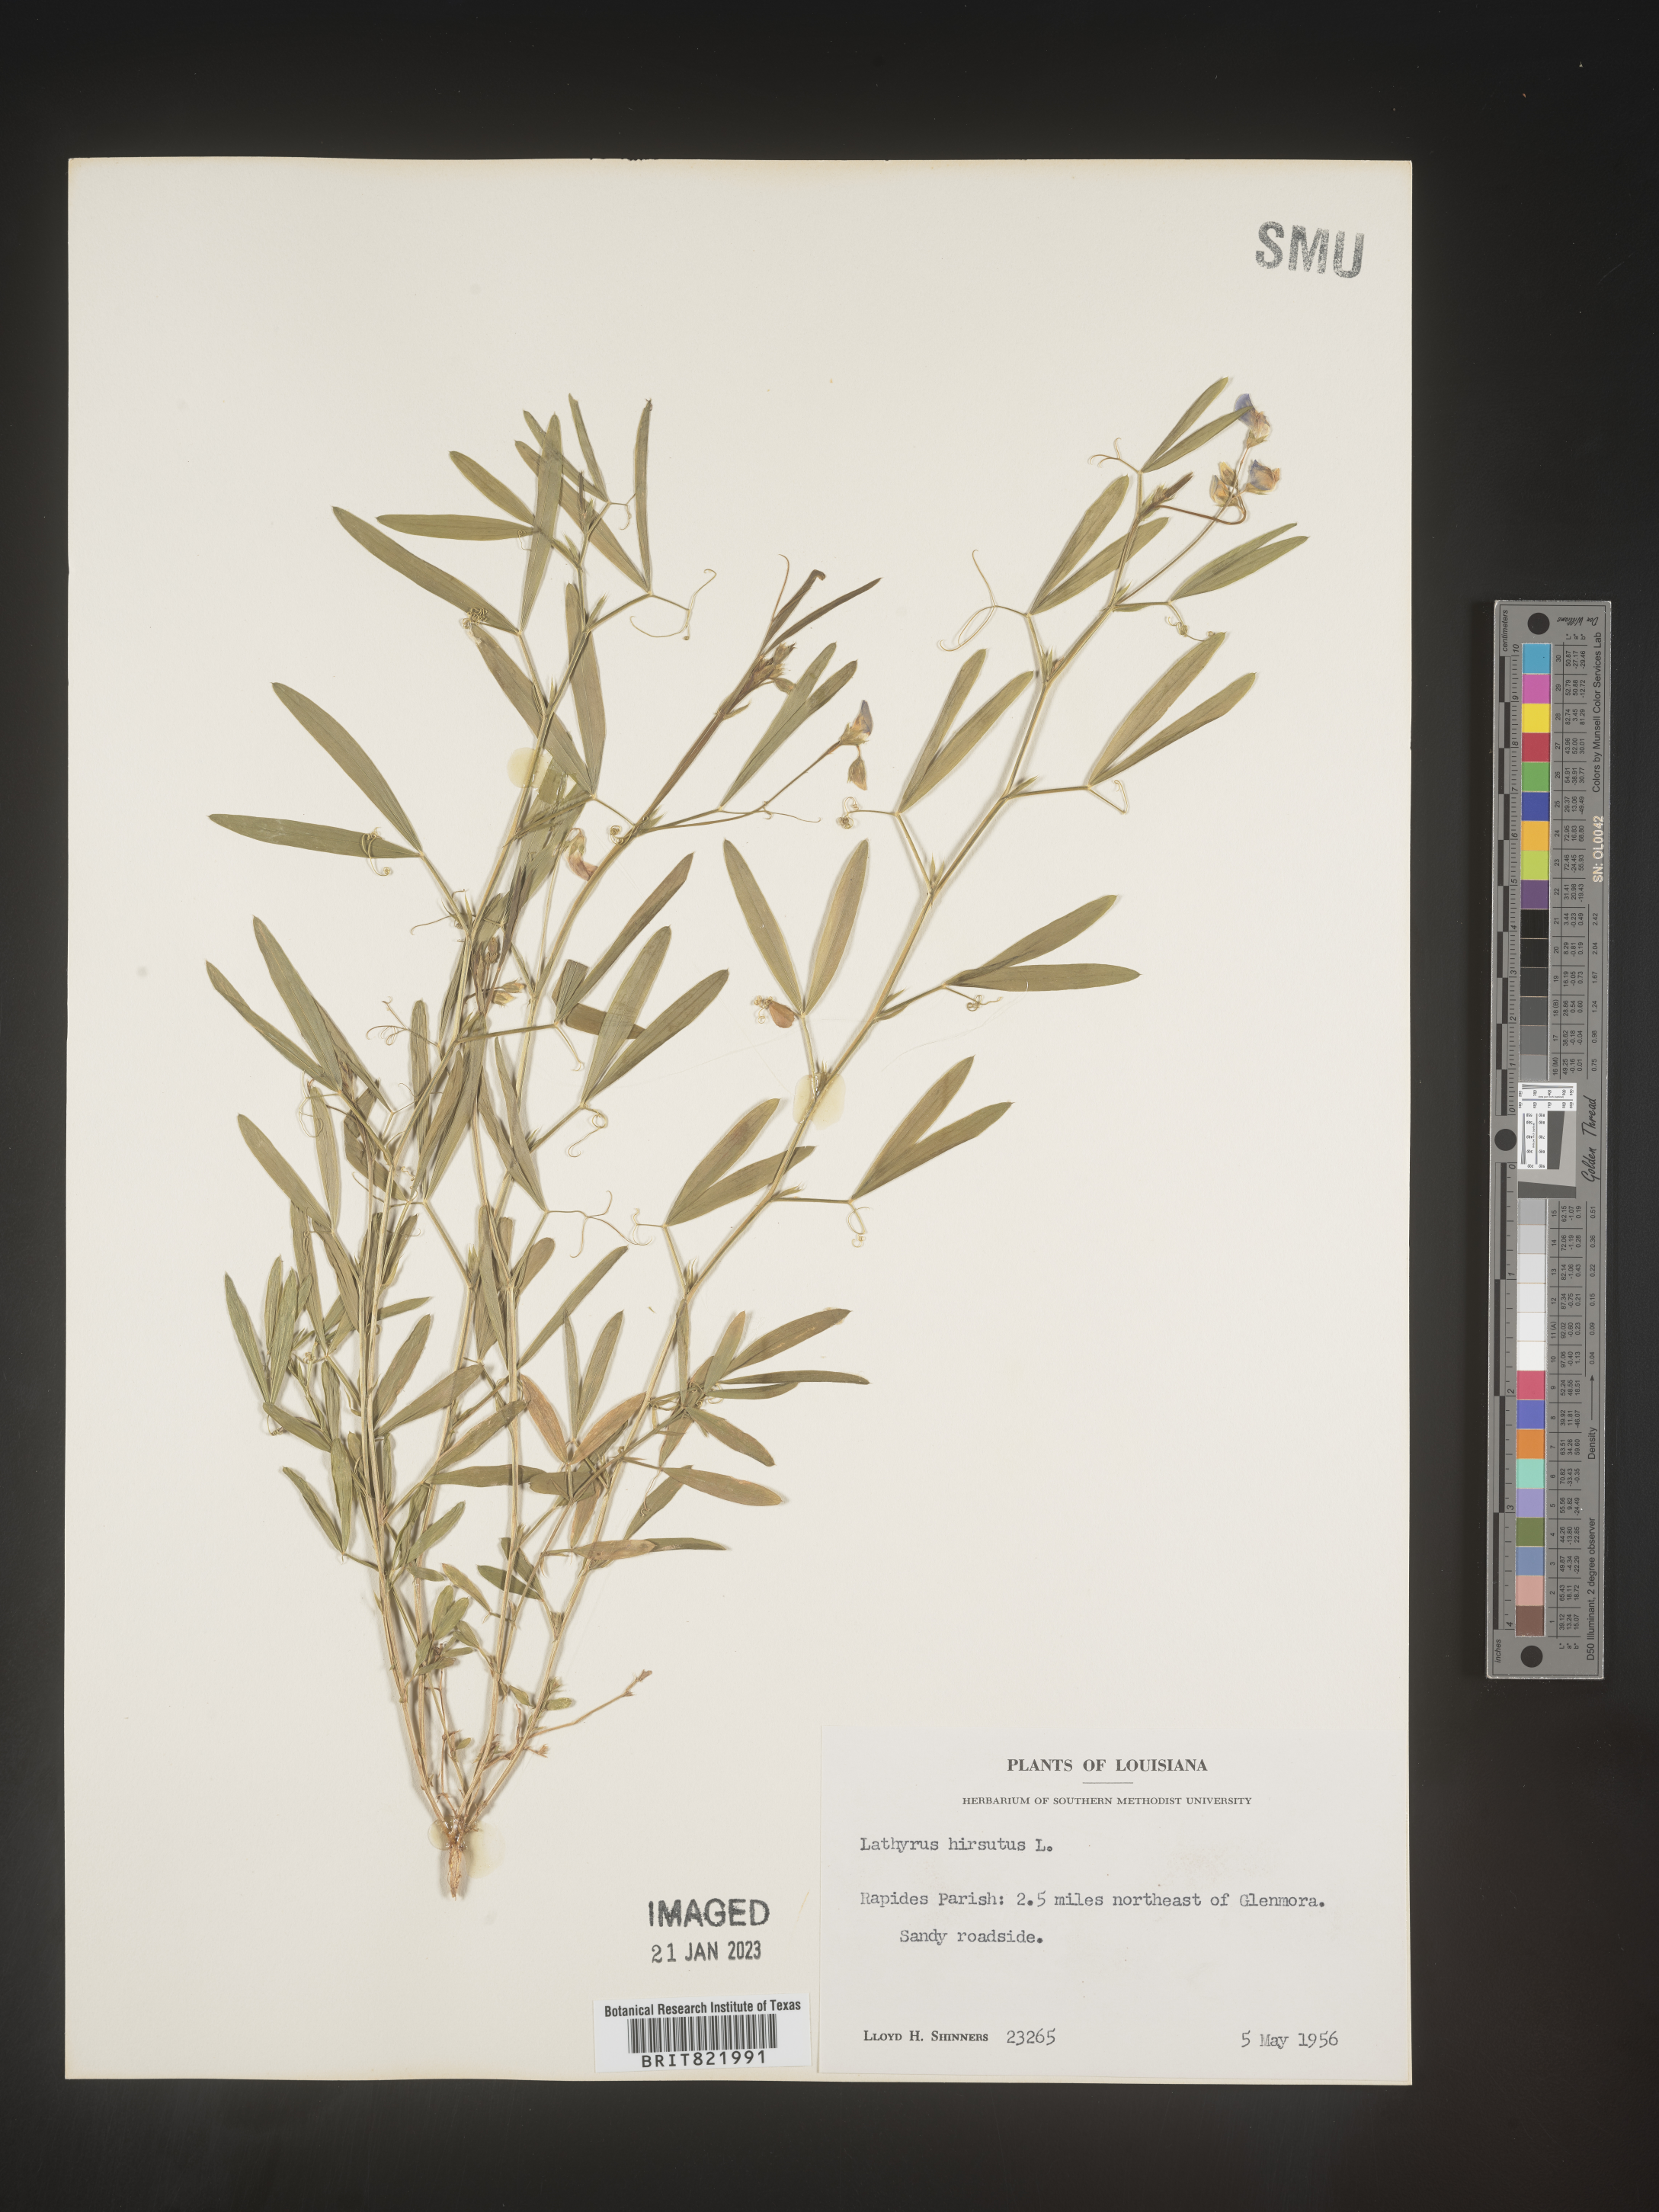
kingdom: Plantae
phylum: Tracheophyta
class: Magnoliopsida
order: Fabales
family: Fabaceae
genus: Lathyrus
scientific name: Lathyrus hirsutus
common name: Hairy vetchling
